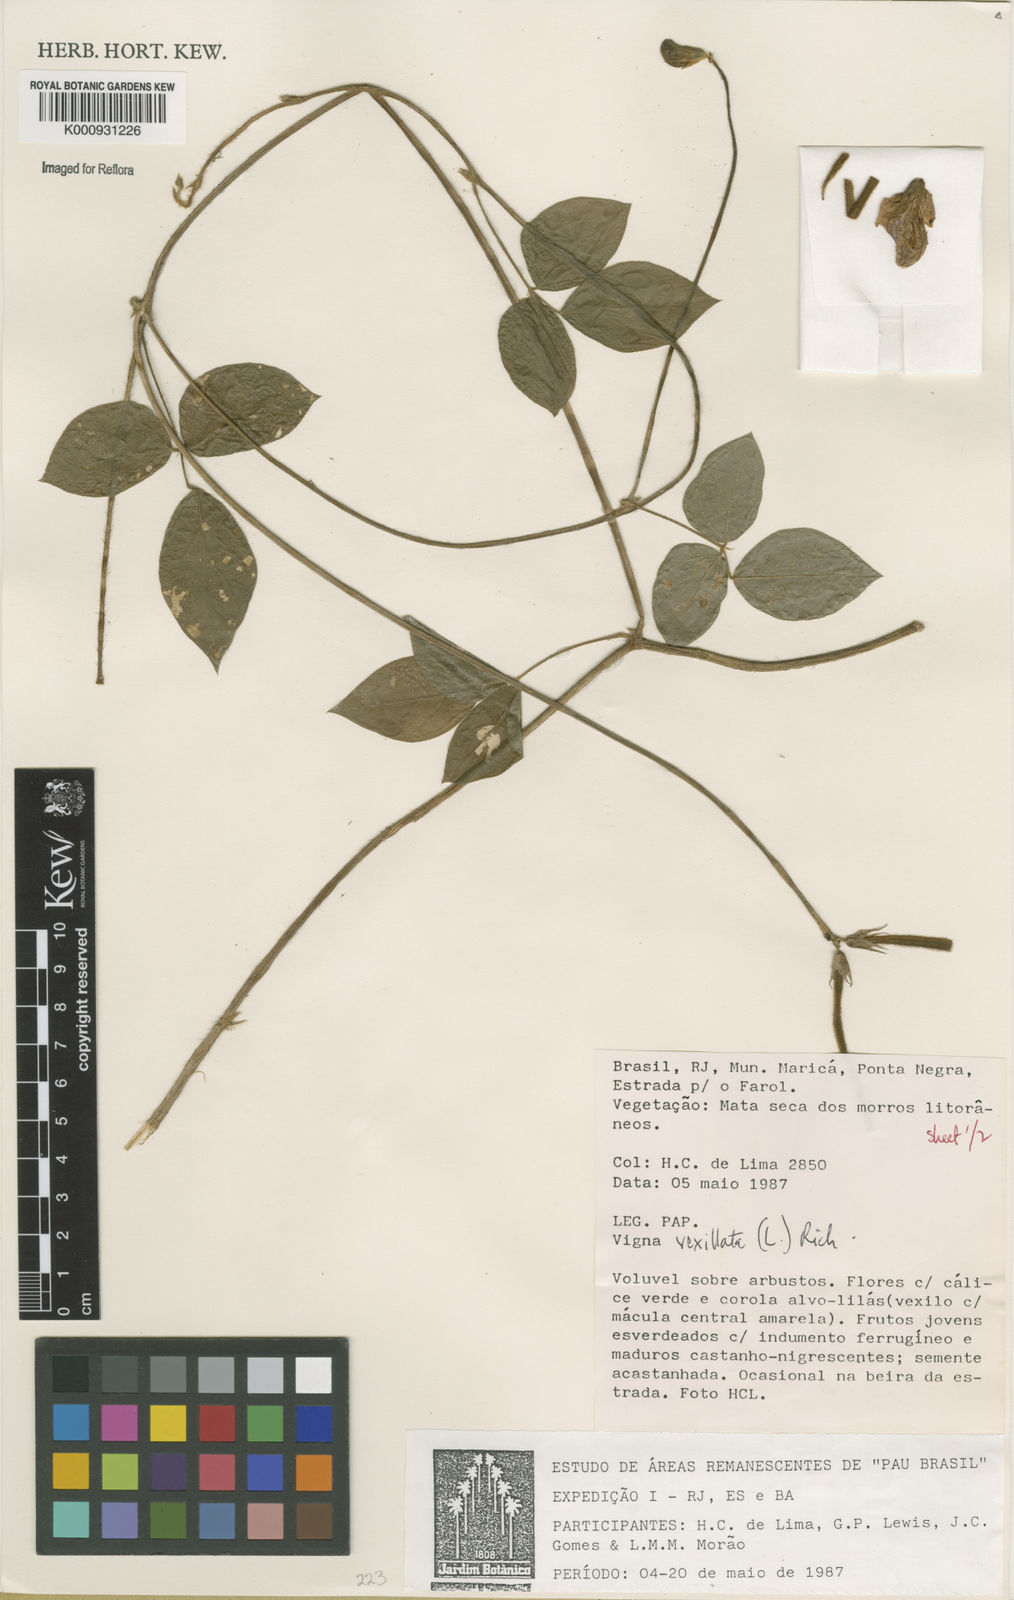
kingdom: Plantae
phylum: Tracheophyta
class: Magnoliopsida
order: Fabales
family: Fabaceae
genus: Vigna
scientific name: Vigna vexillata
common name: Zombi pea
